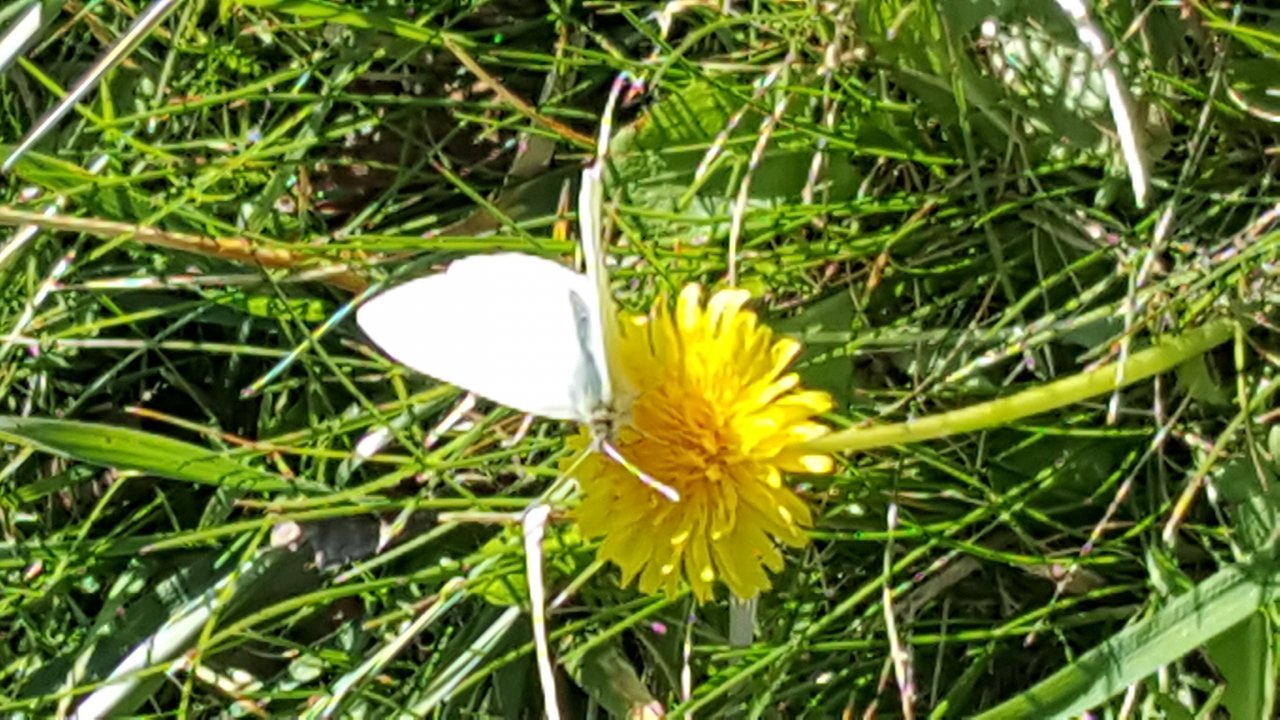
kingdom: Animalia
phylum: Arthropoda
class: Insecta
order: Lepidoptera
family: Pieridae
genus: Pieris
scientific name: Pieris rapae
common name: Cabbage White
